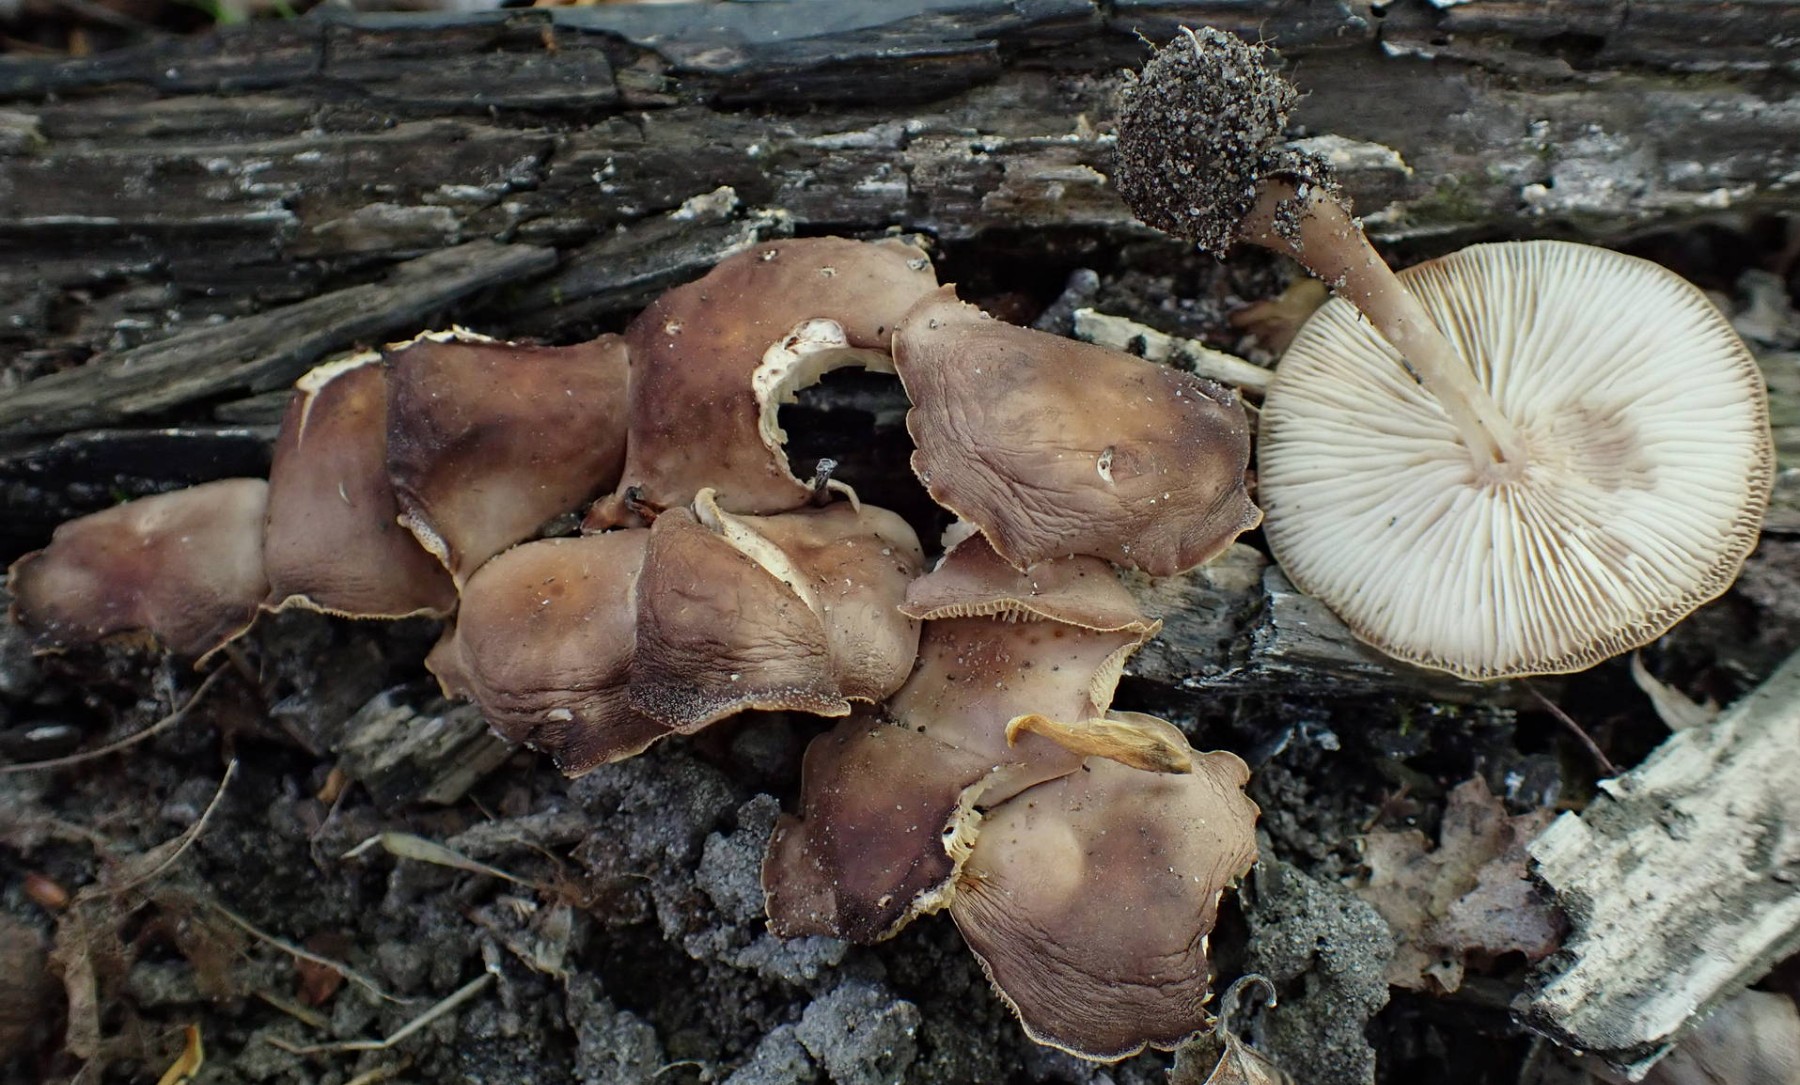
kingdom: Fungi
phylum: Basidiomycota
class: Agaricomycetes
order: Agaricales
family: Omphalotaceae
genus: Gymnopus
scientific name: Gymnopus ocior
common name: mørk fladhat
